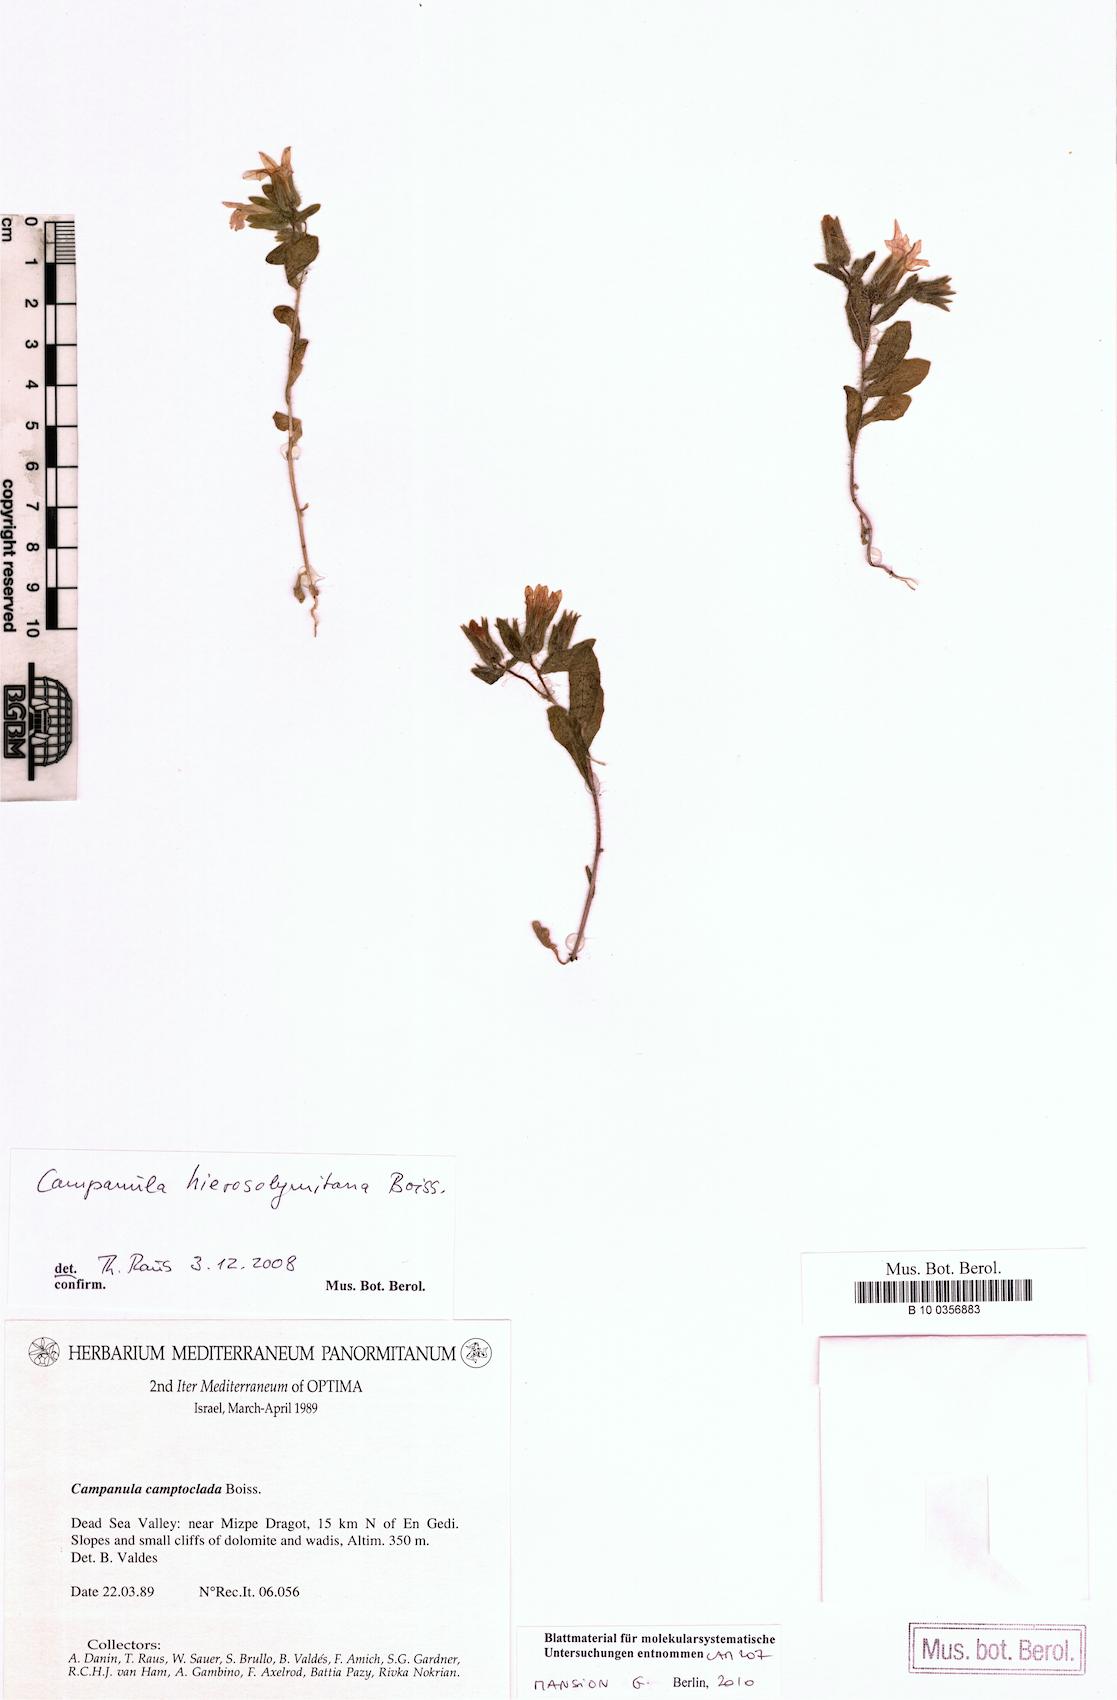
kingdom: Plantae
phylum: Tracheophyta
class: Magnoliopsida
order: Asterales
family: Campanulaceae
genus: Campanula
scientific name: Campanula camptoclada
